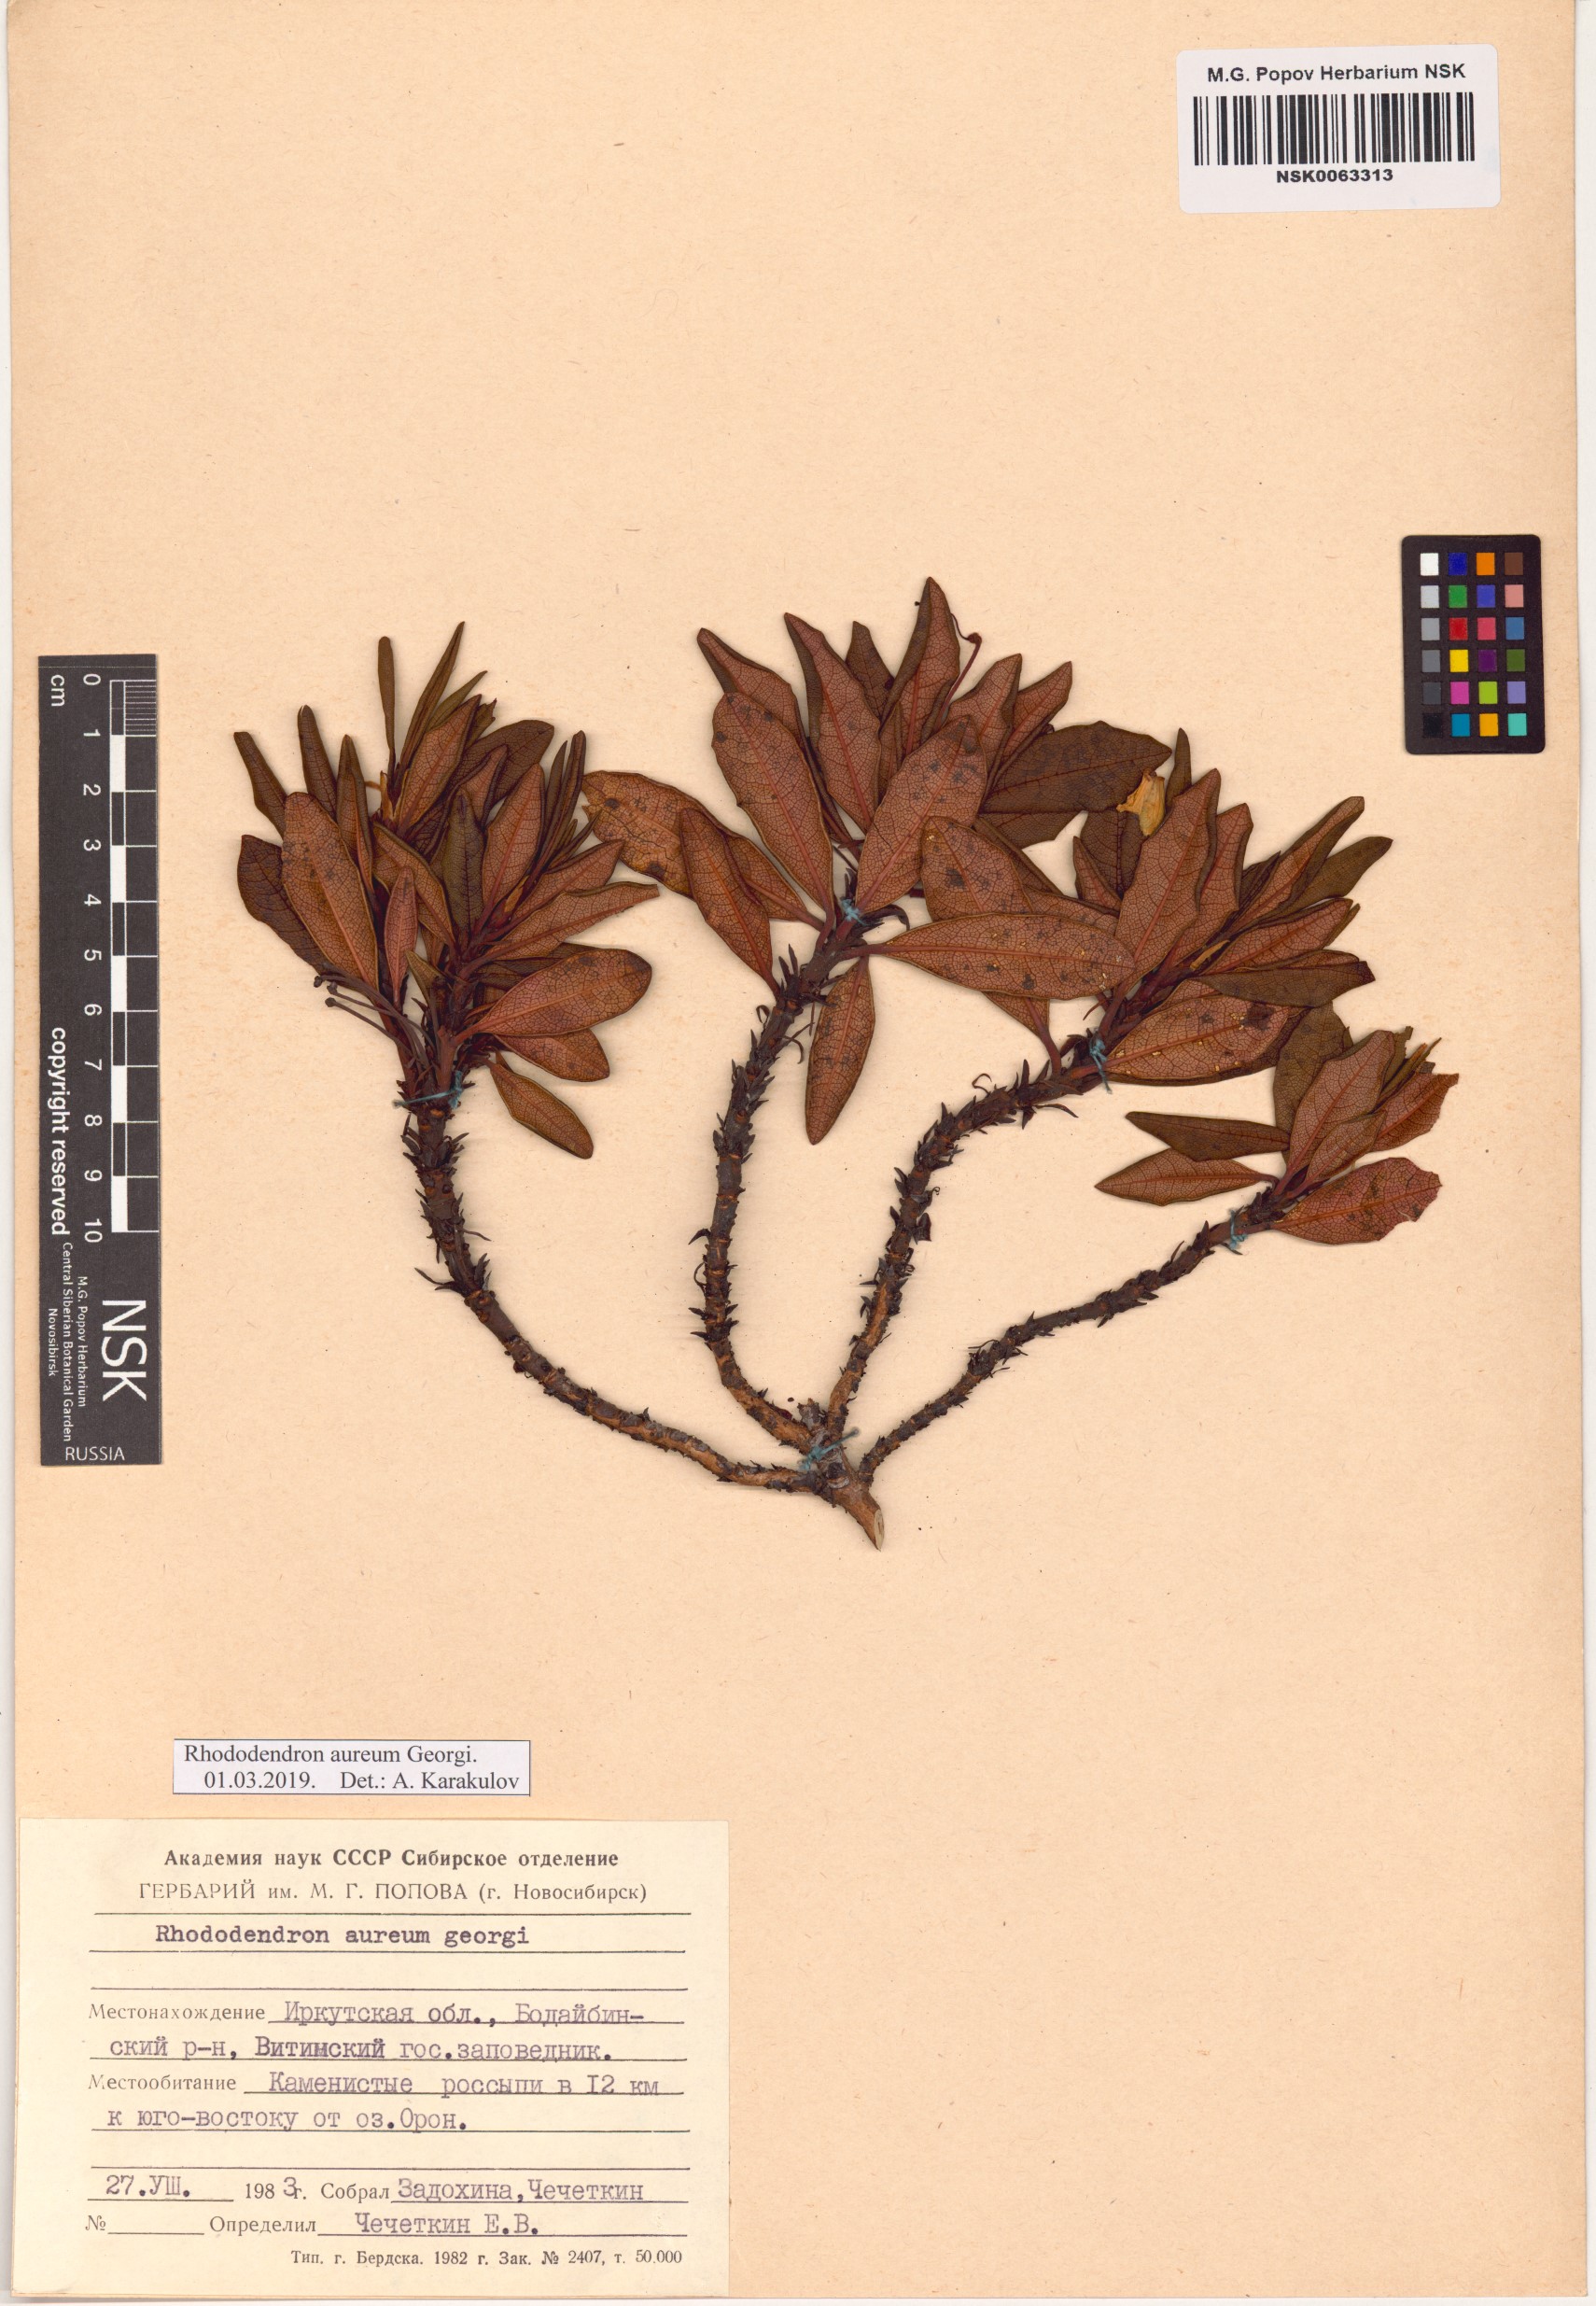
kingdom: Plantae
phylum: Tracheophyta
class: Magnoliopsida
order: Ericales
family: Ericaceae
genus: Rhododendron
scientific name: Rhododendron aureum
